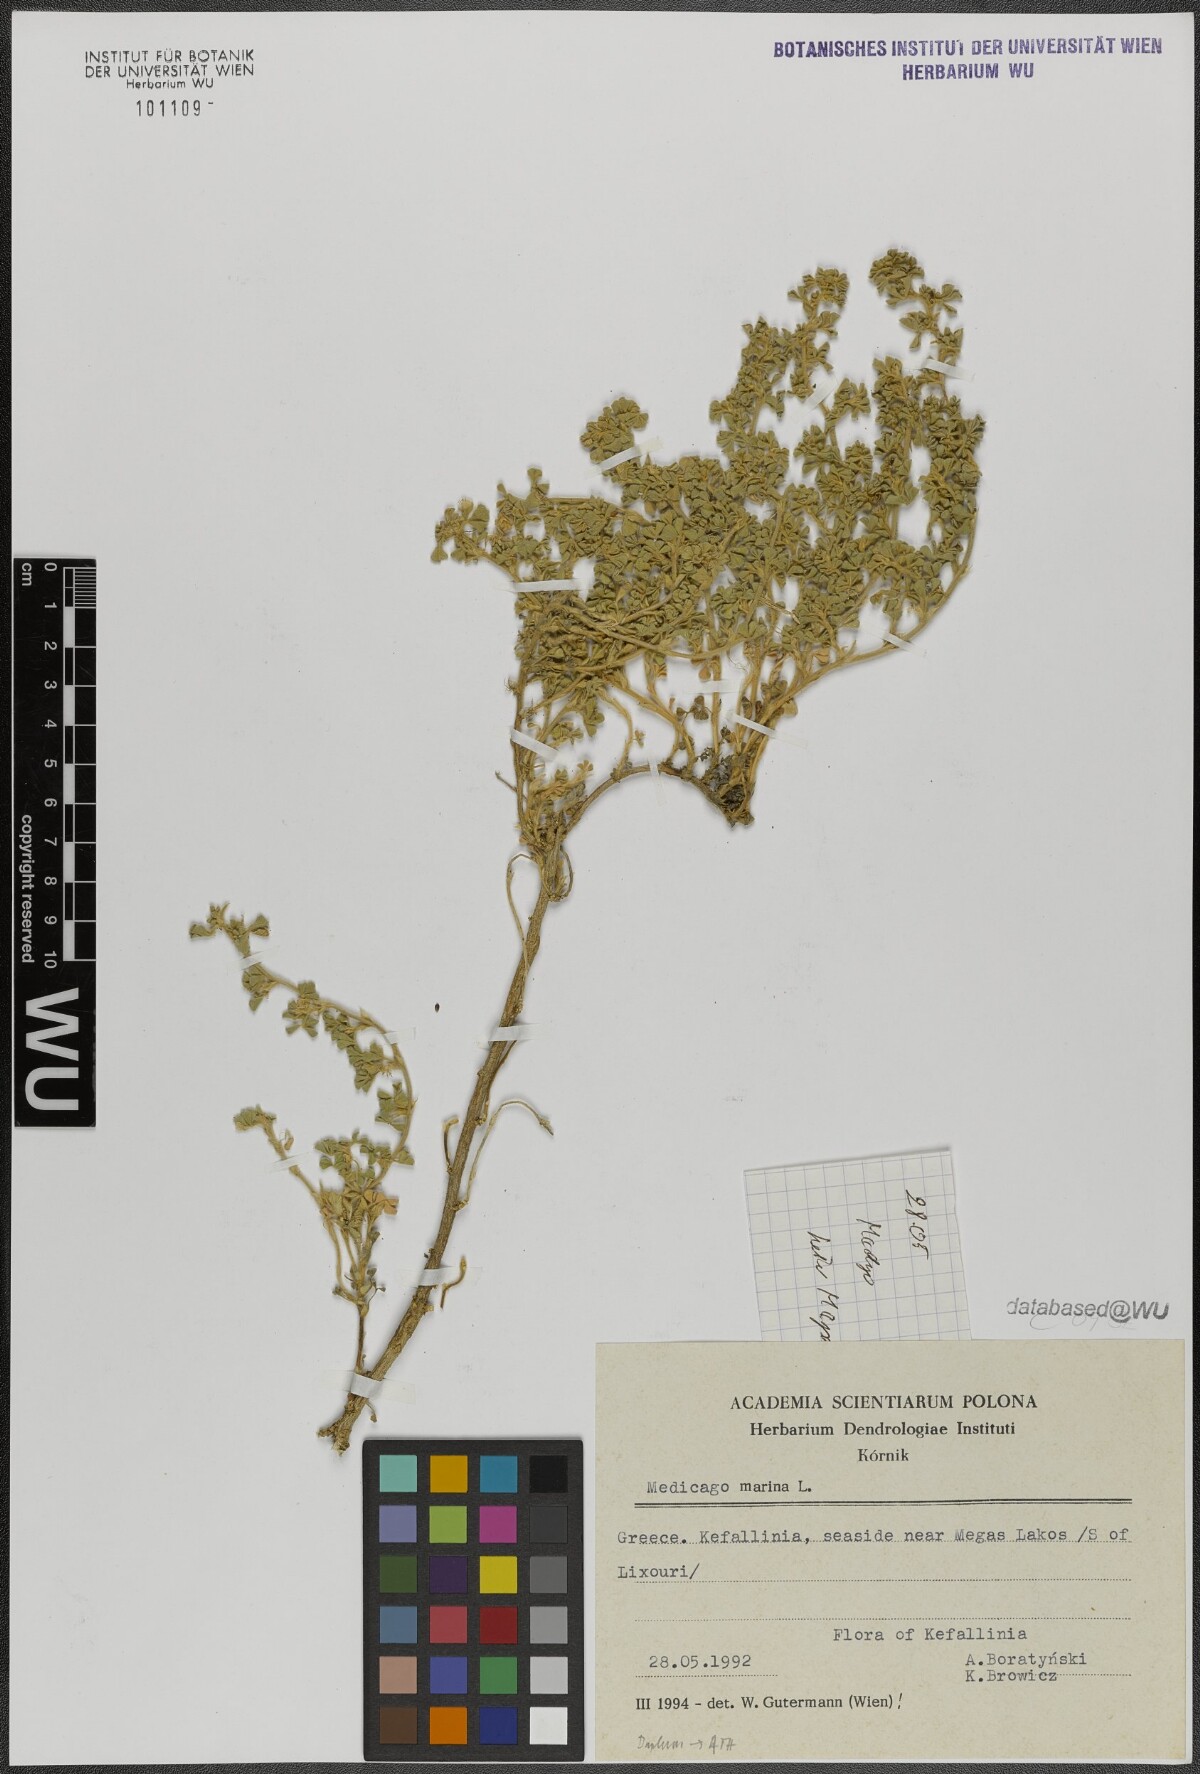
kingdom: Plantae
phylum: Tracheophyta
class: Magnoliopsida
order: Fabales
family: Fabaceae
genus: Medicago
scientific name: Medicago marina
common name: Sea medick
